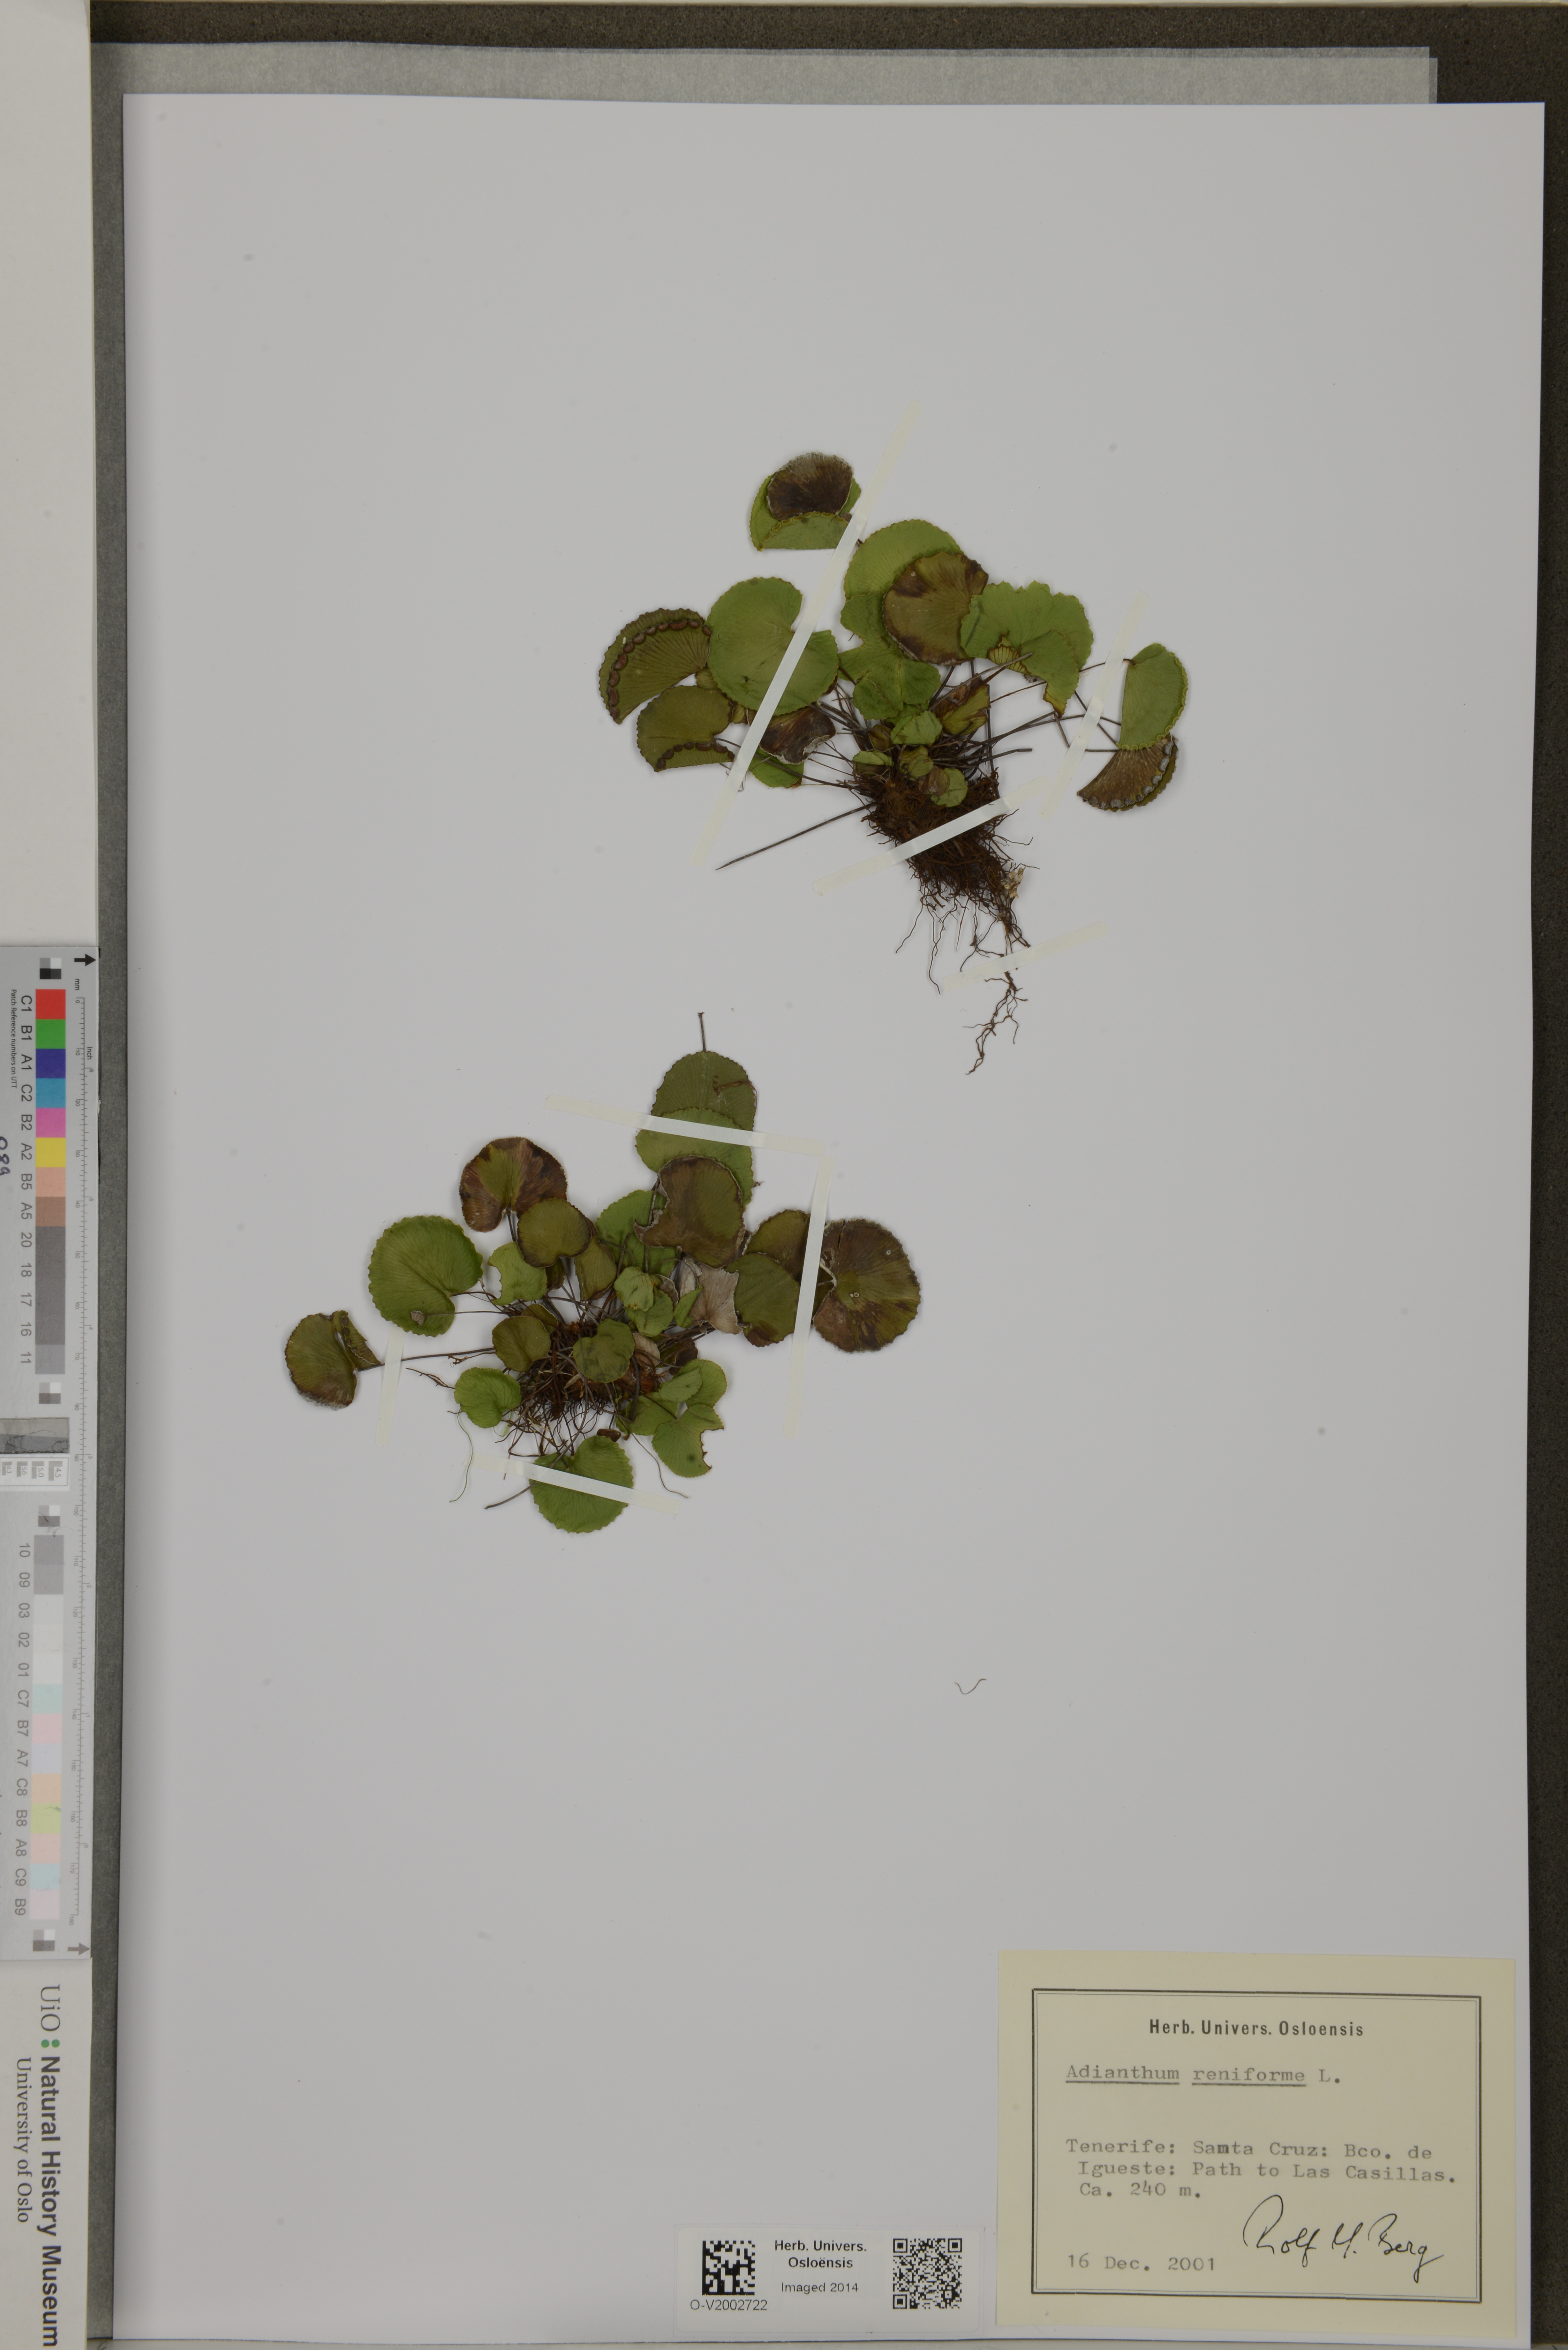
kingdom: Plantae
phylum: Tracheophyta
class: Polypodiopsida
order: Polypodiales
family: Pteridaceae
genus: Adiantum
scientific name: Adiantum reniforme
